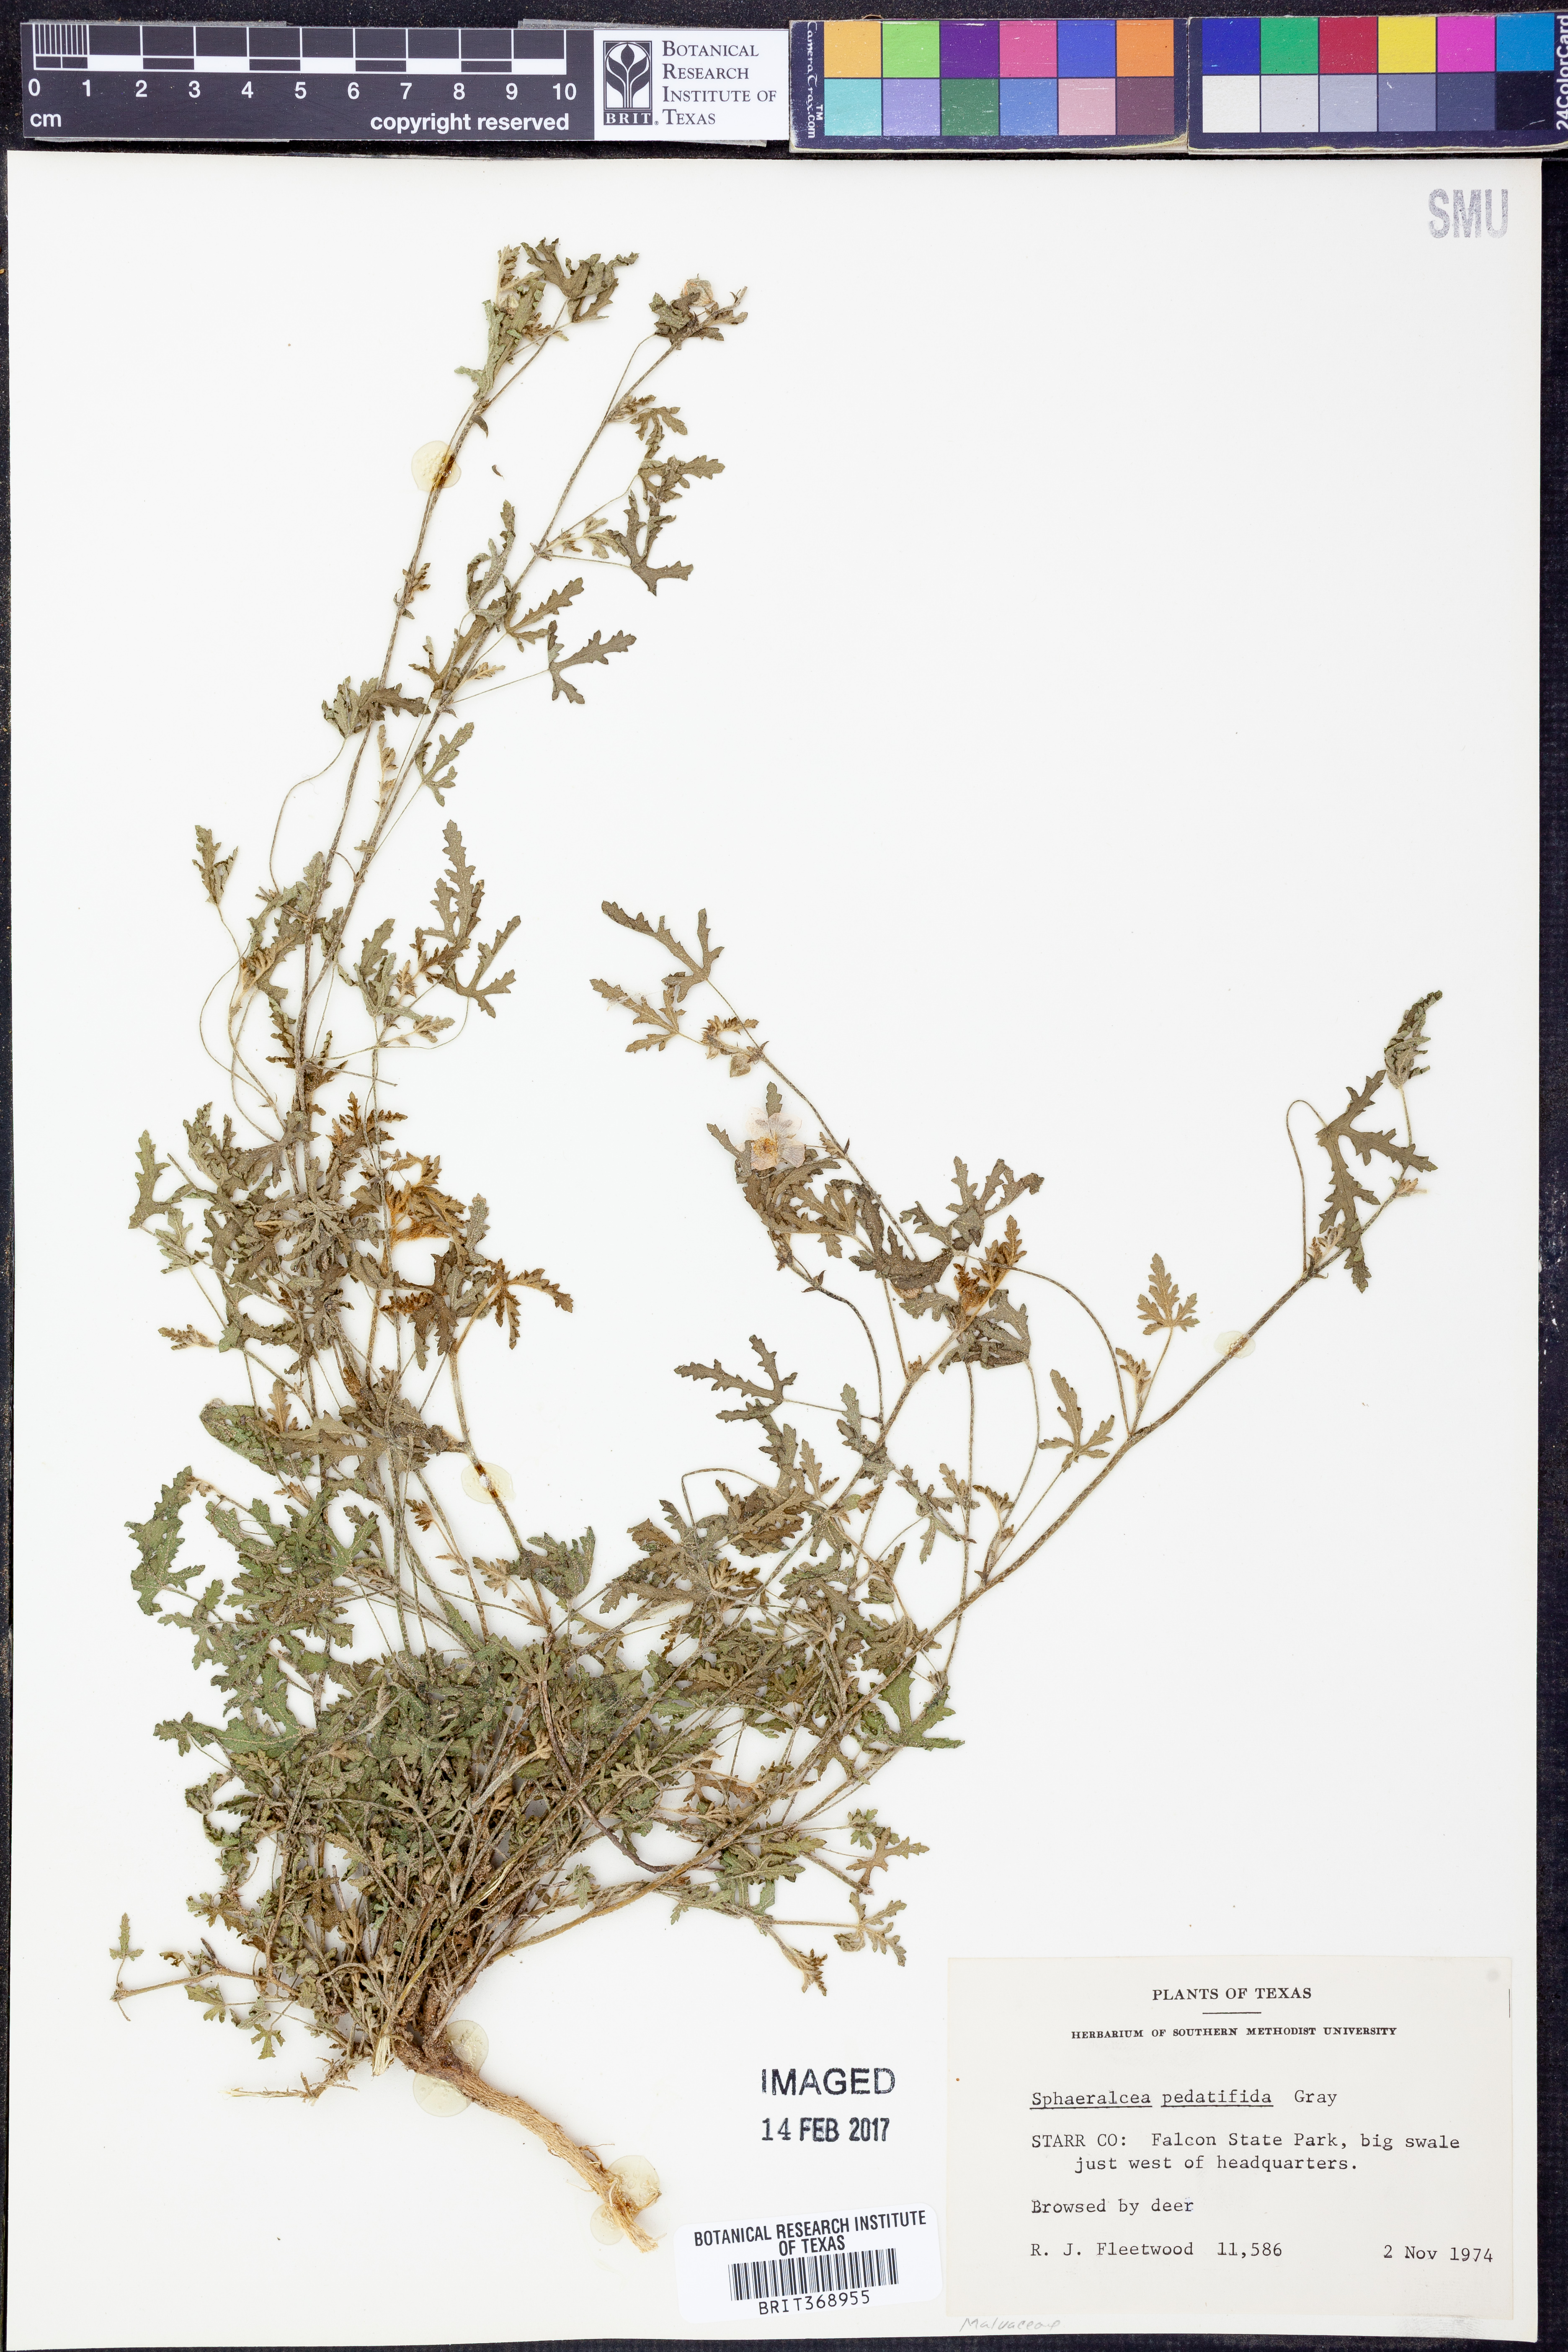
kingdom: Plantae
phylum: Tracheophyta
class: Magnoliopsida
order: Malvales
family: Malvaceae
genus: Sphaeralcea
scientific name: Sphaeralcea pedatifida
